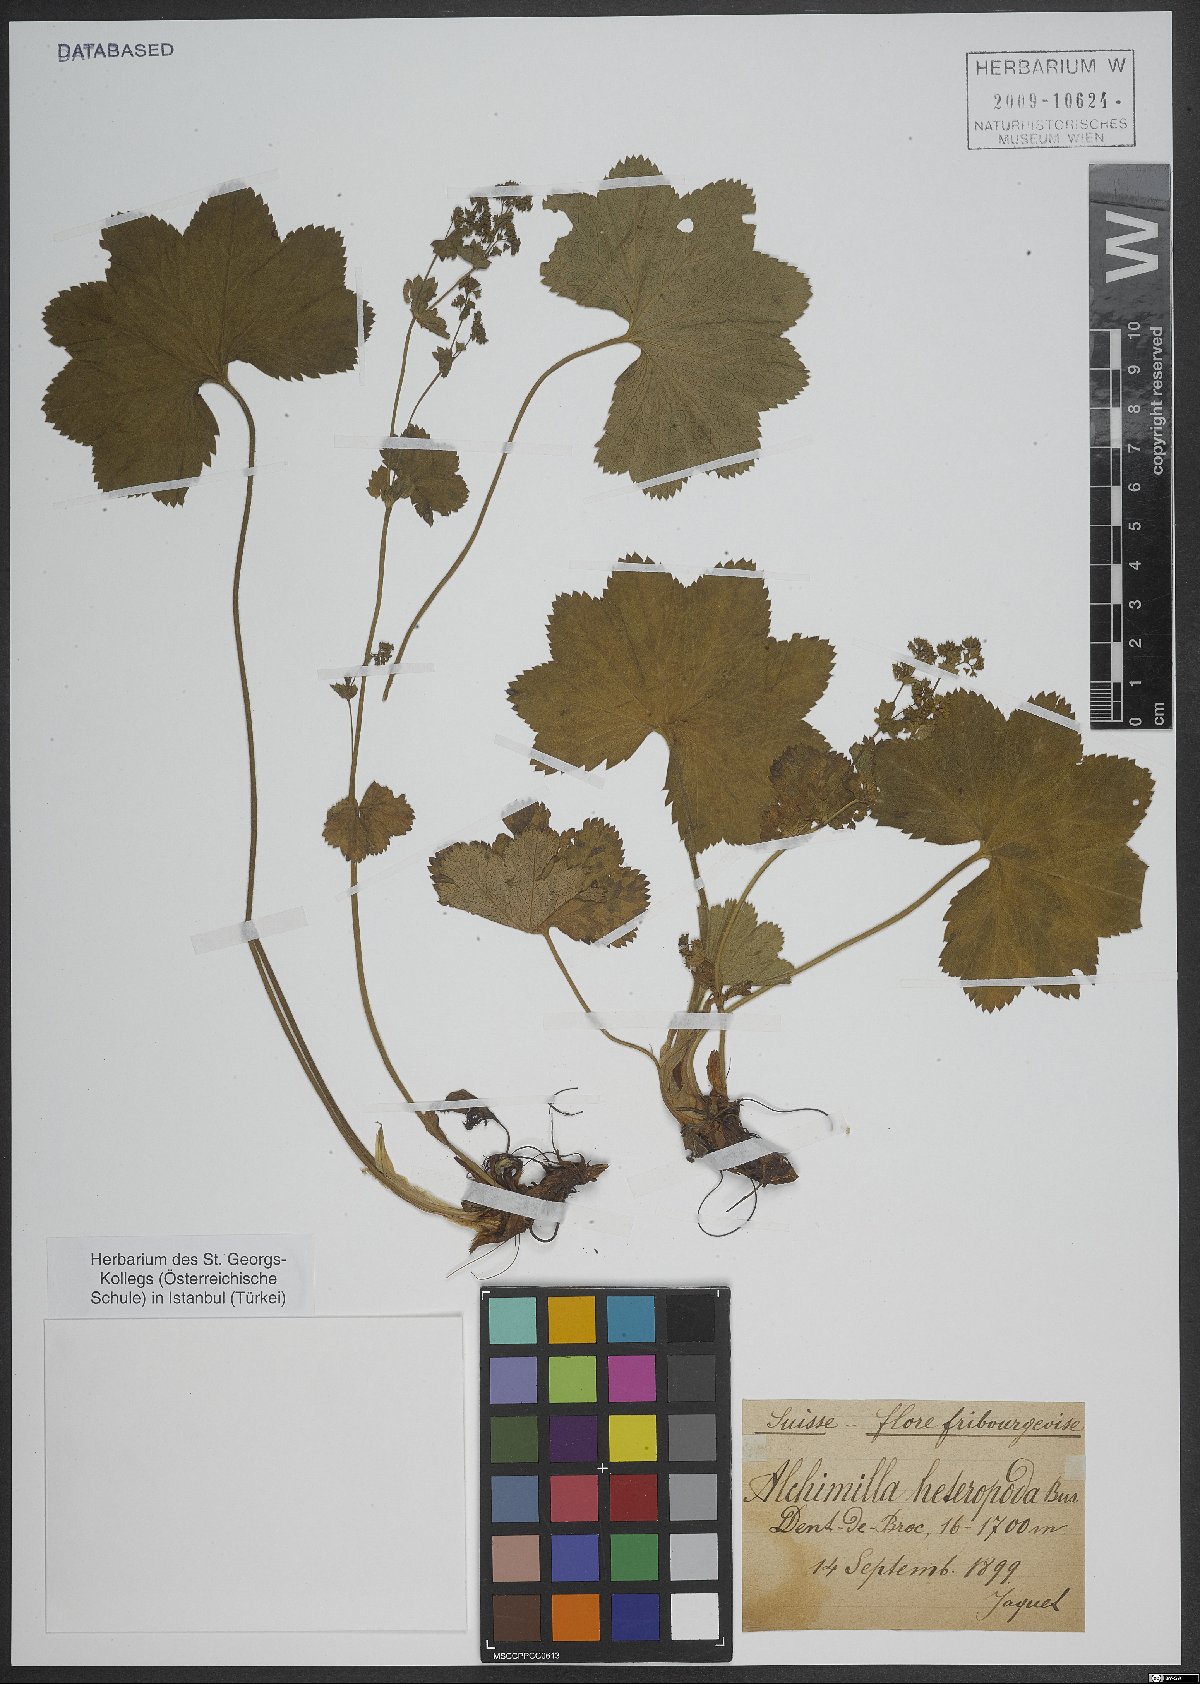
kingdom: Plantae
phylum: Tracheophyta
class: Magnoliopsida
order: Rosales
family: Rosaceae
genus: Alchemilla
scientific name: Alchemilla heteropoda
